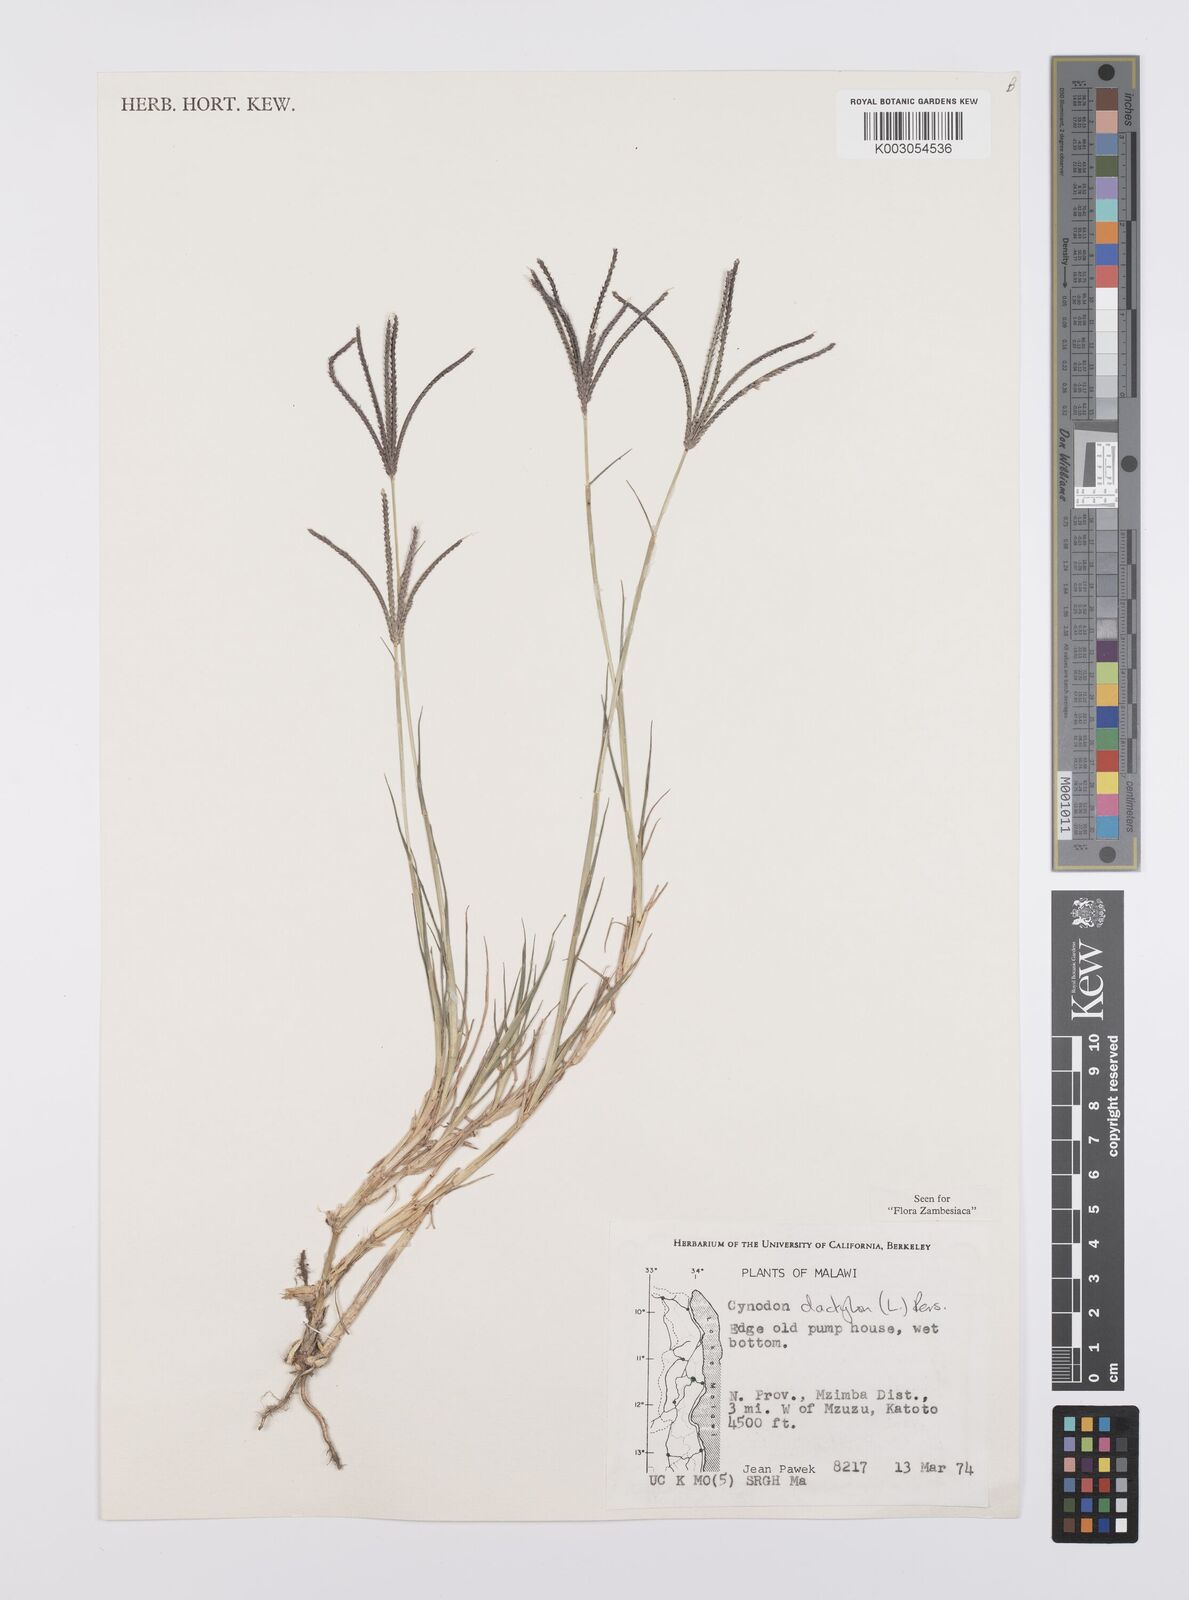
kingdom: Plantae
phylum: Tracheophyta
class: Liliopsida
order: Poales
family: Poaceae
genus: Cynodon
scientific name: Cynodon dactylon
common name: Bermuda grass
